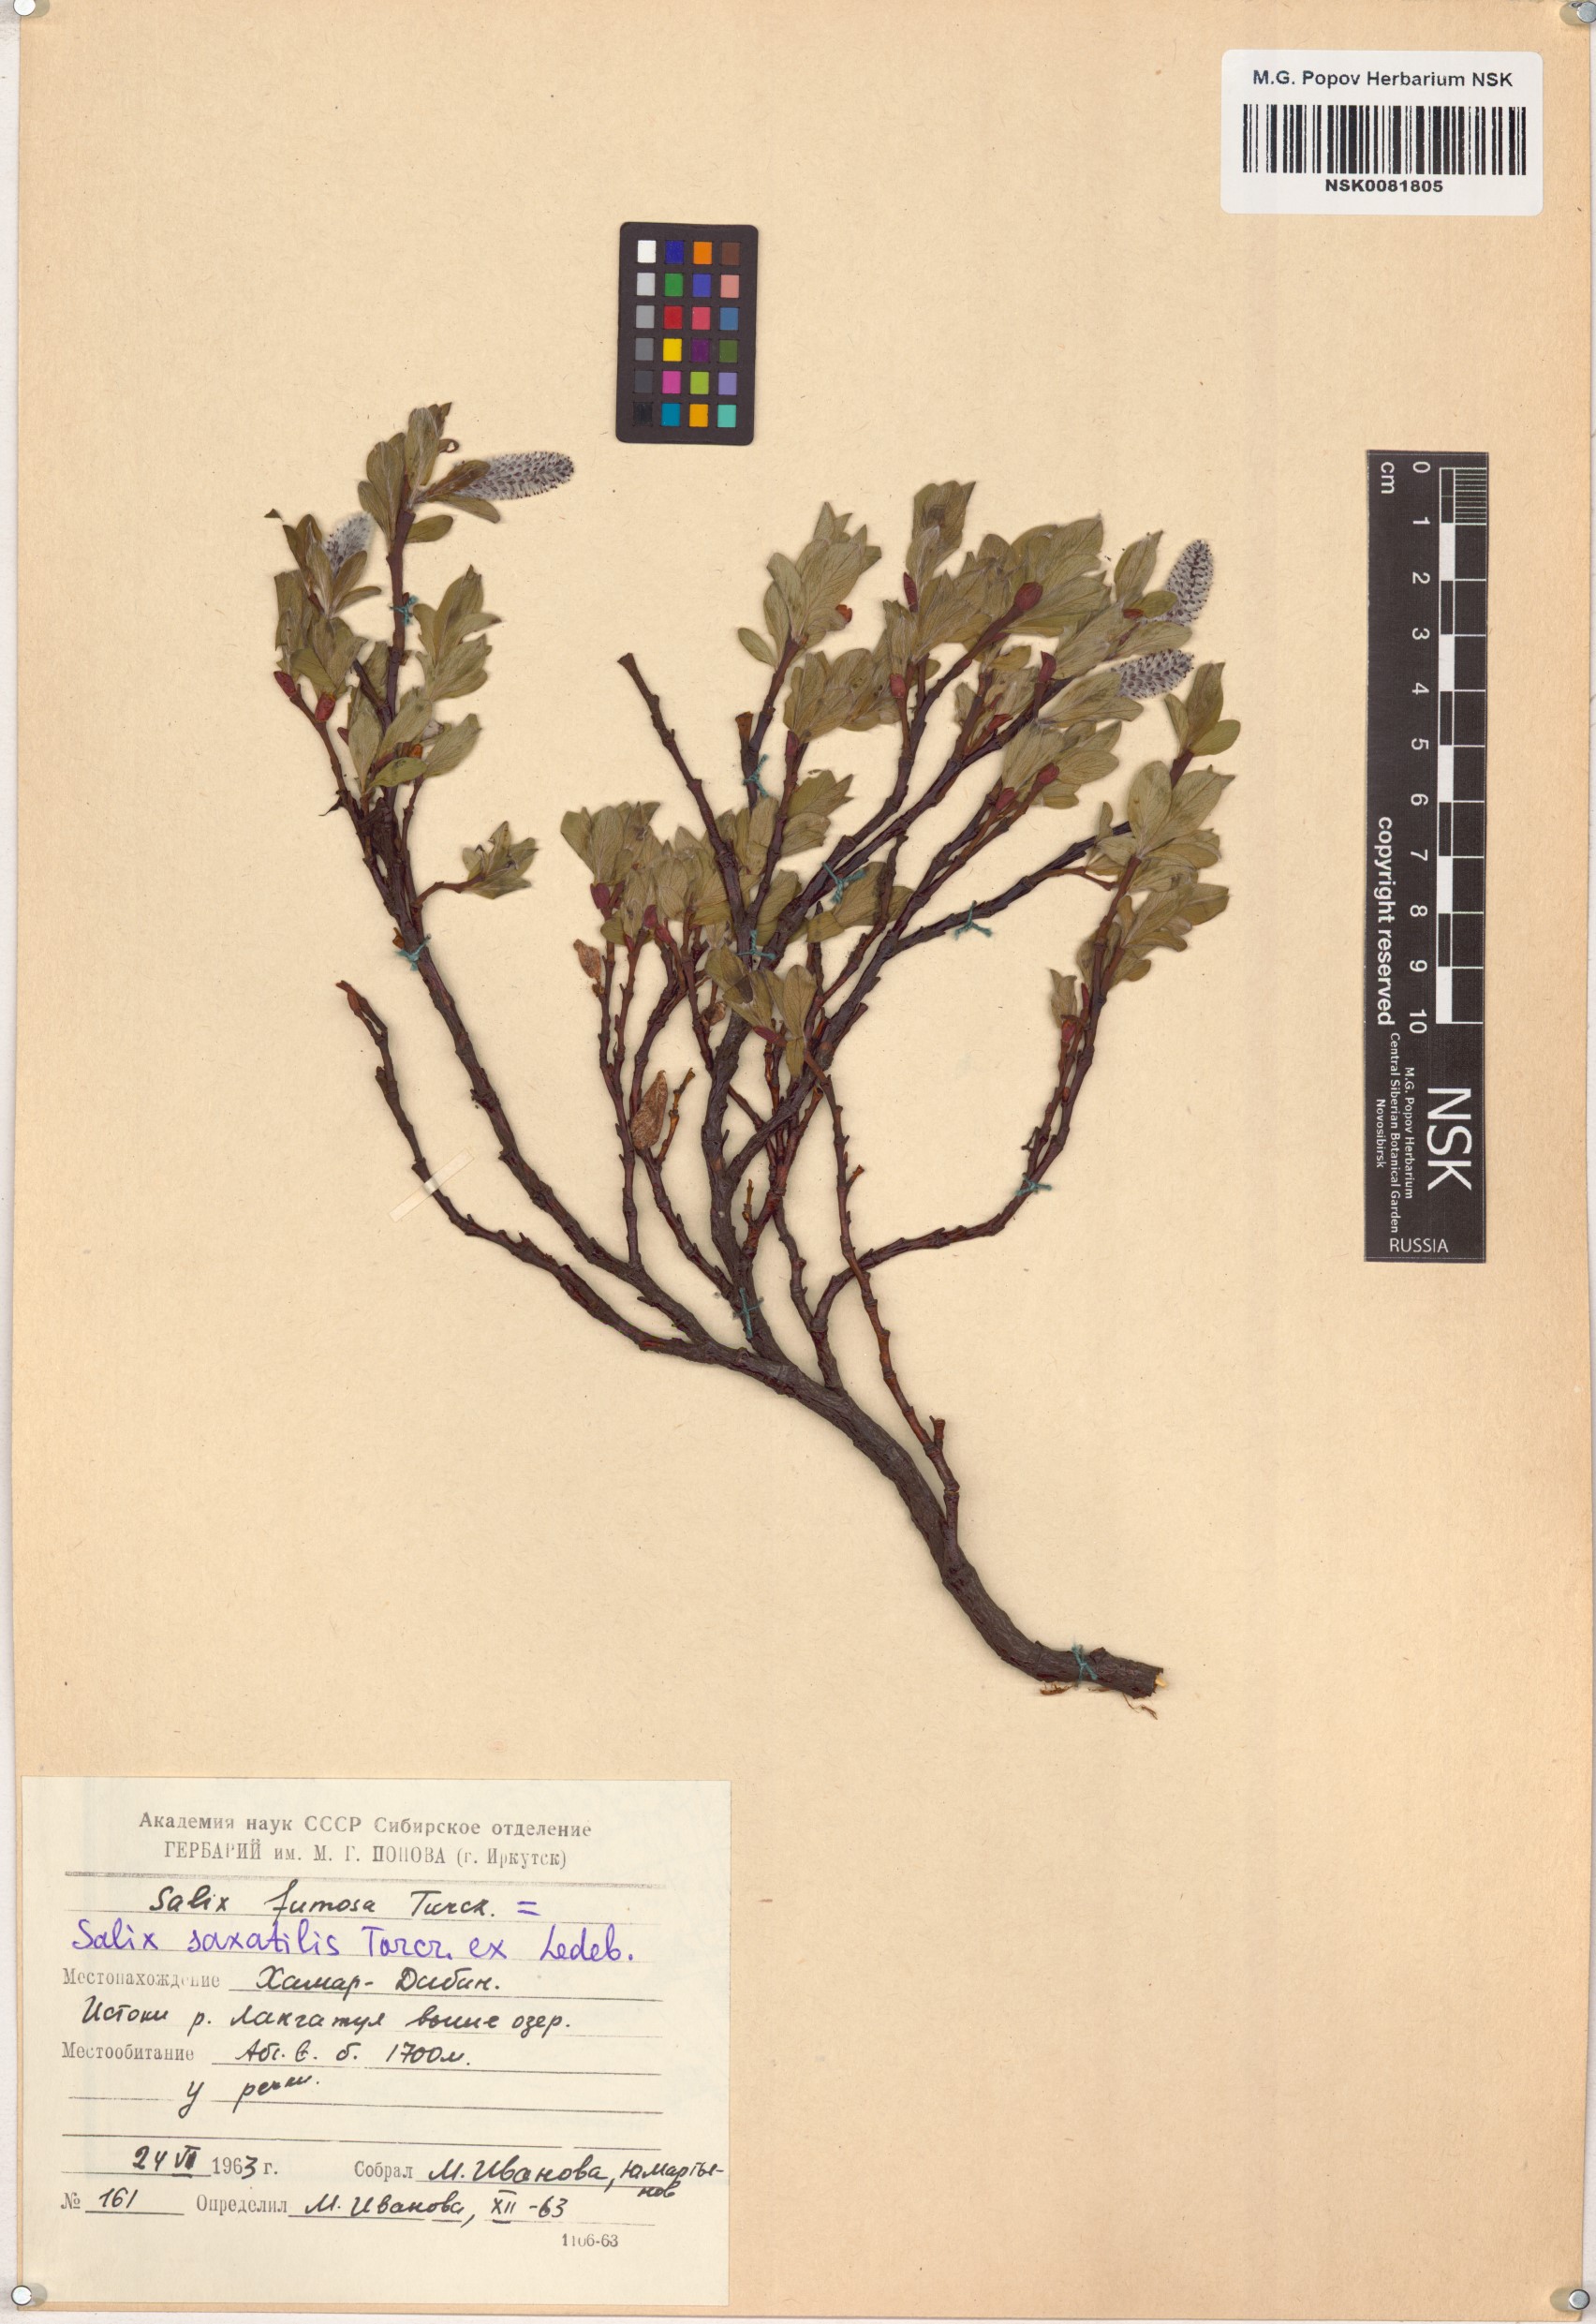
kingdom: Plantae
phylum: Tracheophyta
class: Magnoliopsida
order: Malpighiales
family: Salicaceae
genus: Salix
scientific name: Salix saxatilis
